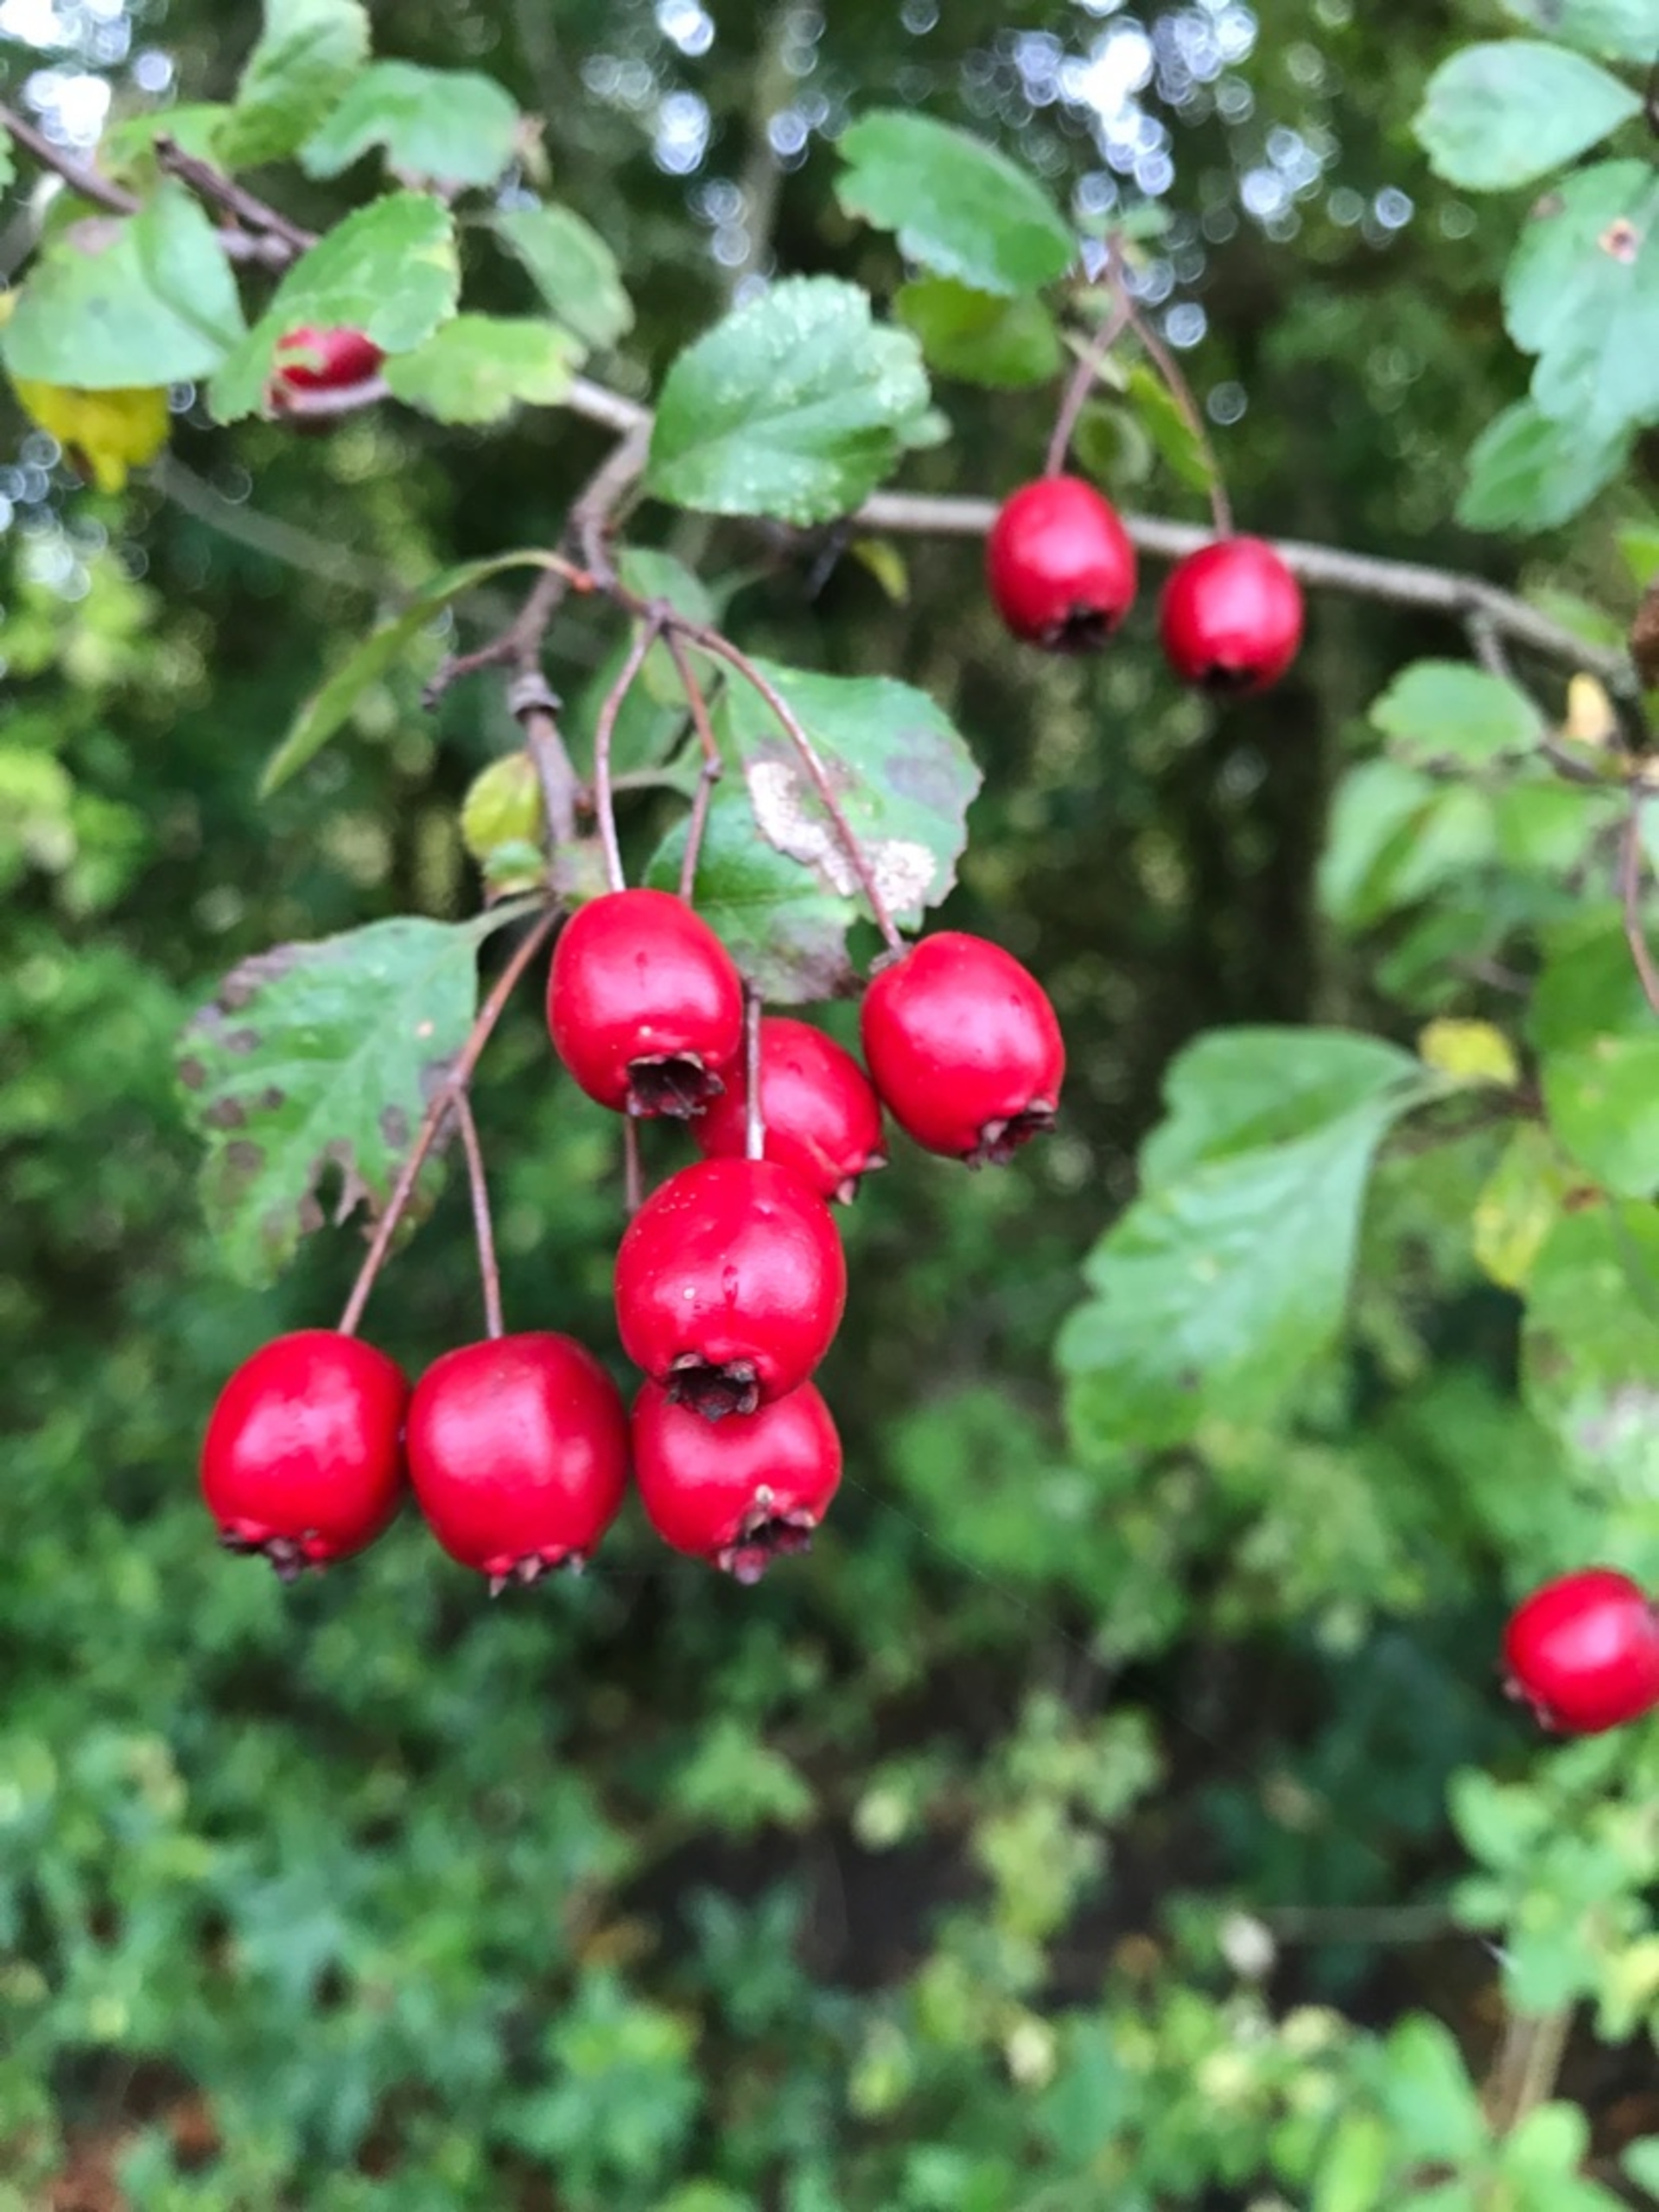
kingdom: Plantae
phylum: Tracheophyta
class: Magnoliopsida
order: Rosales
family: Rosaceae
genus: Crataegus
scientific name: Crataegus laevigata
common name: Almindelig hvidtjørn
